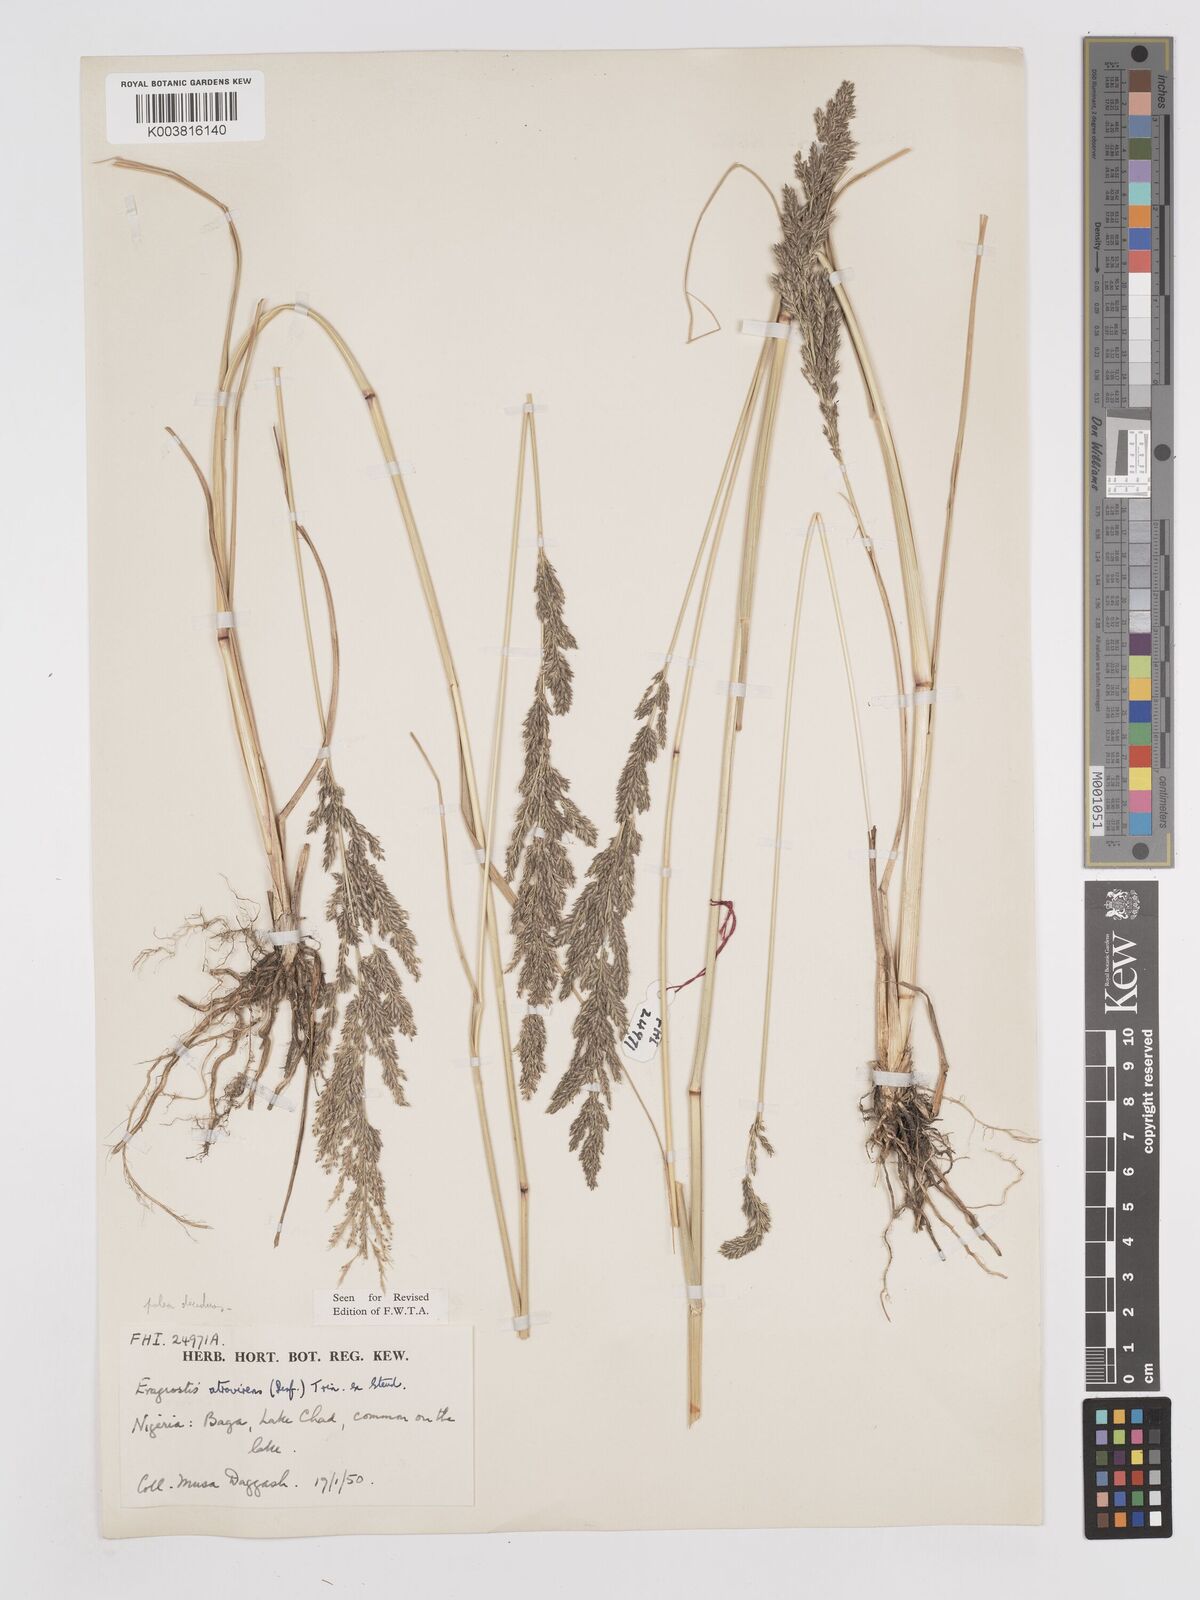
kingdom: Plantae
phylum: Tracheophyta
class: Liliopsida
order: Poales
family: Poaceae
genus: Eragrostis
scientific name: Eragrostis atrovirens
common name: Thalia lovegrass
